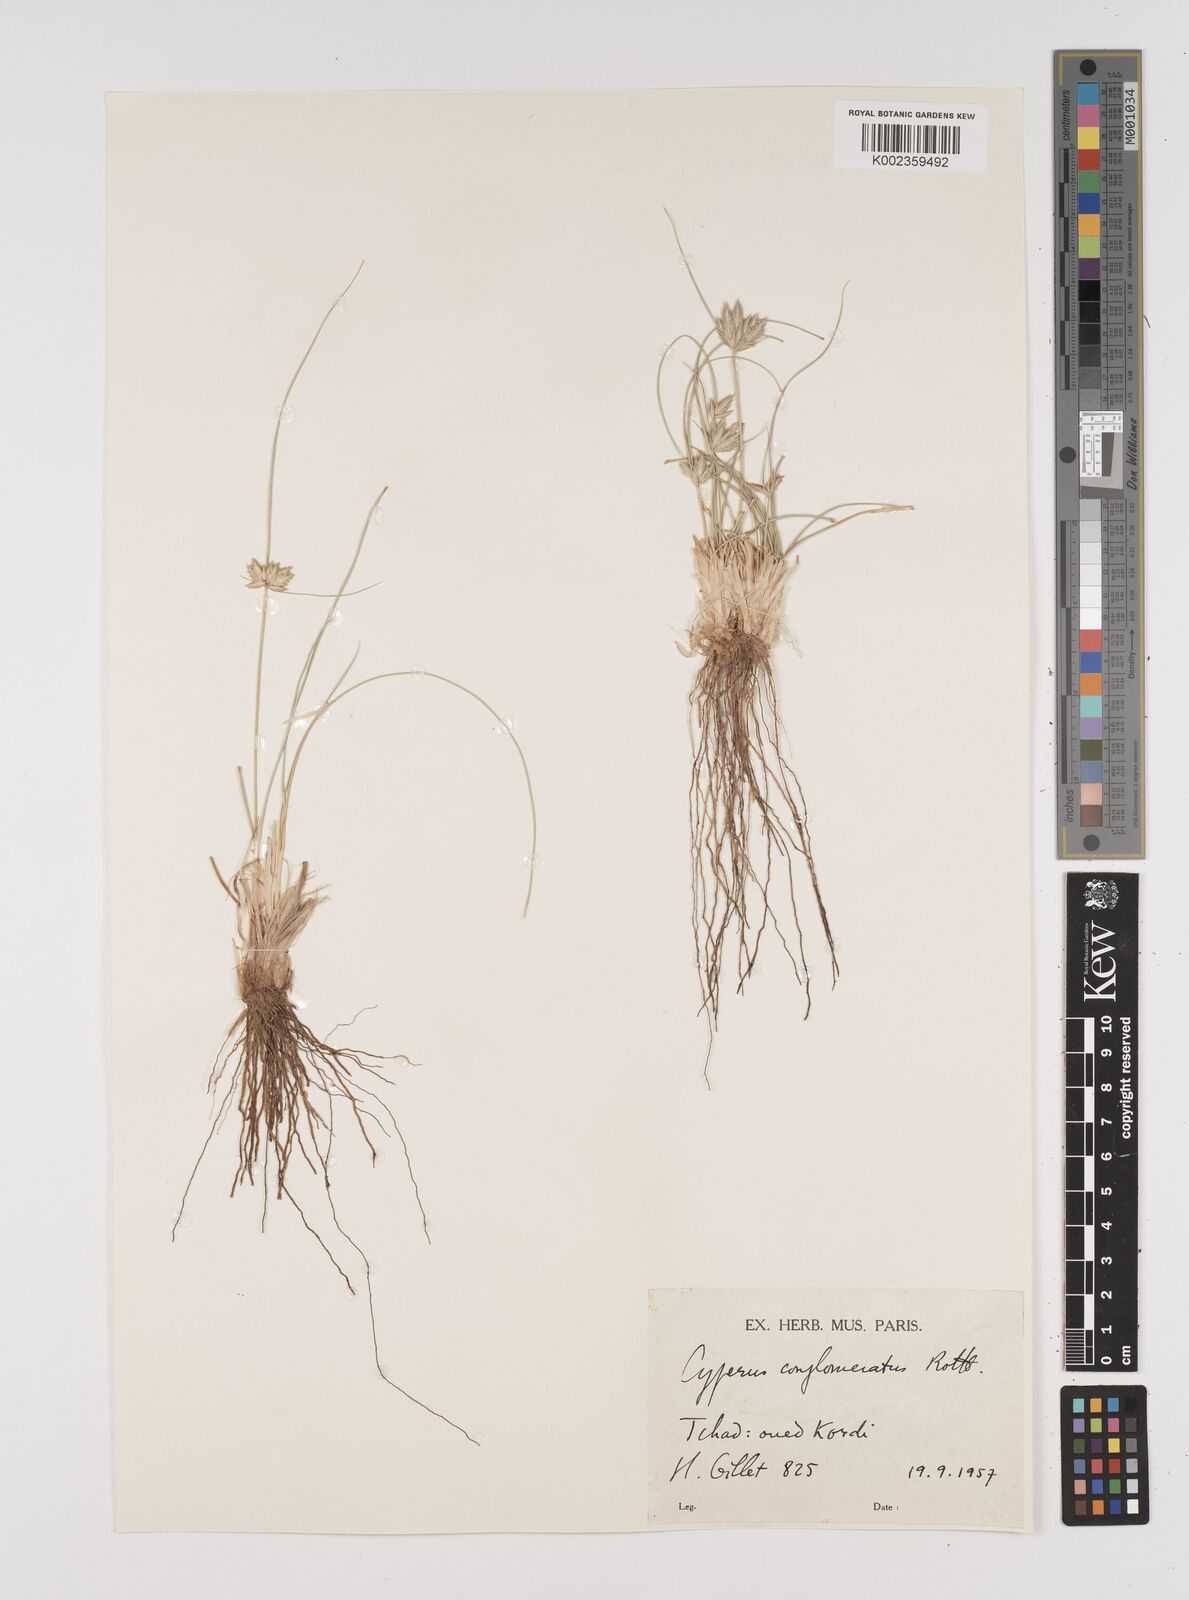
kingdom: Plantae
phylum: Tracheophyta
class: Liliopsida
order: Poales
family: Cyperaceae
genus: Cyperus
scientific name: Cyperus conglomeratus
